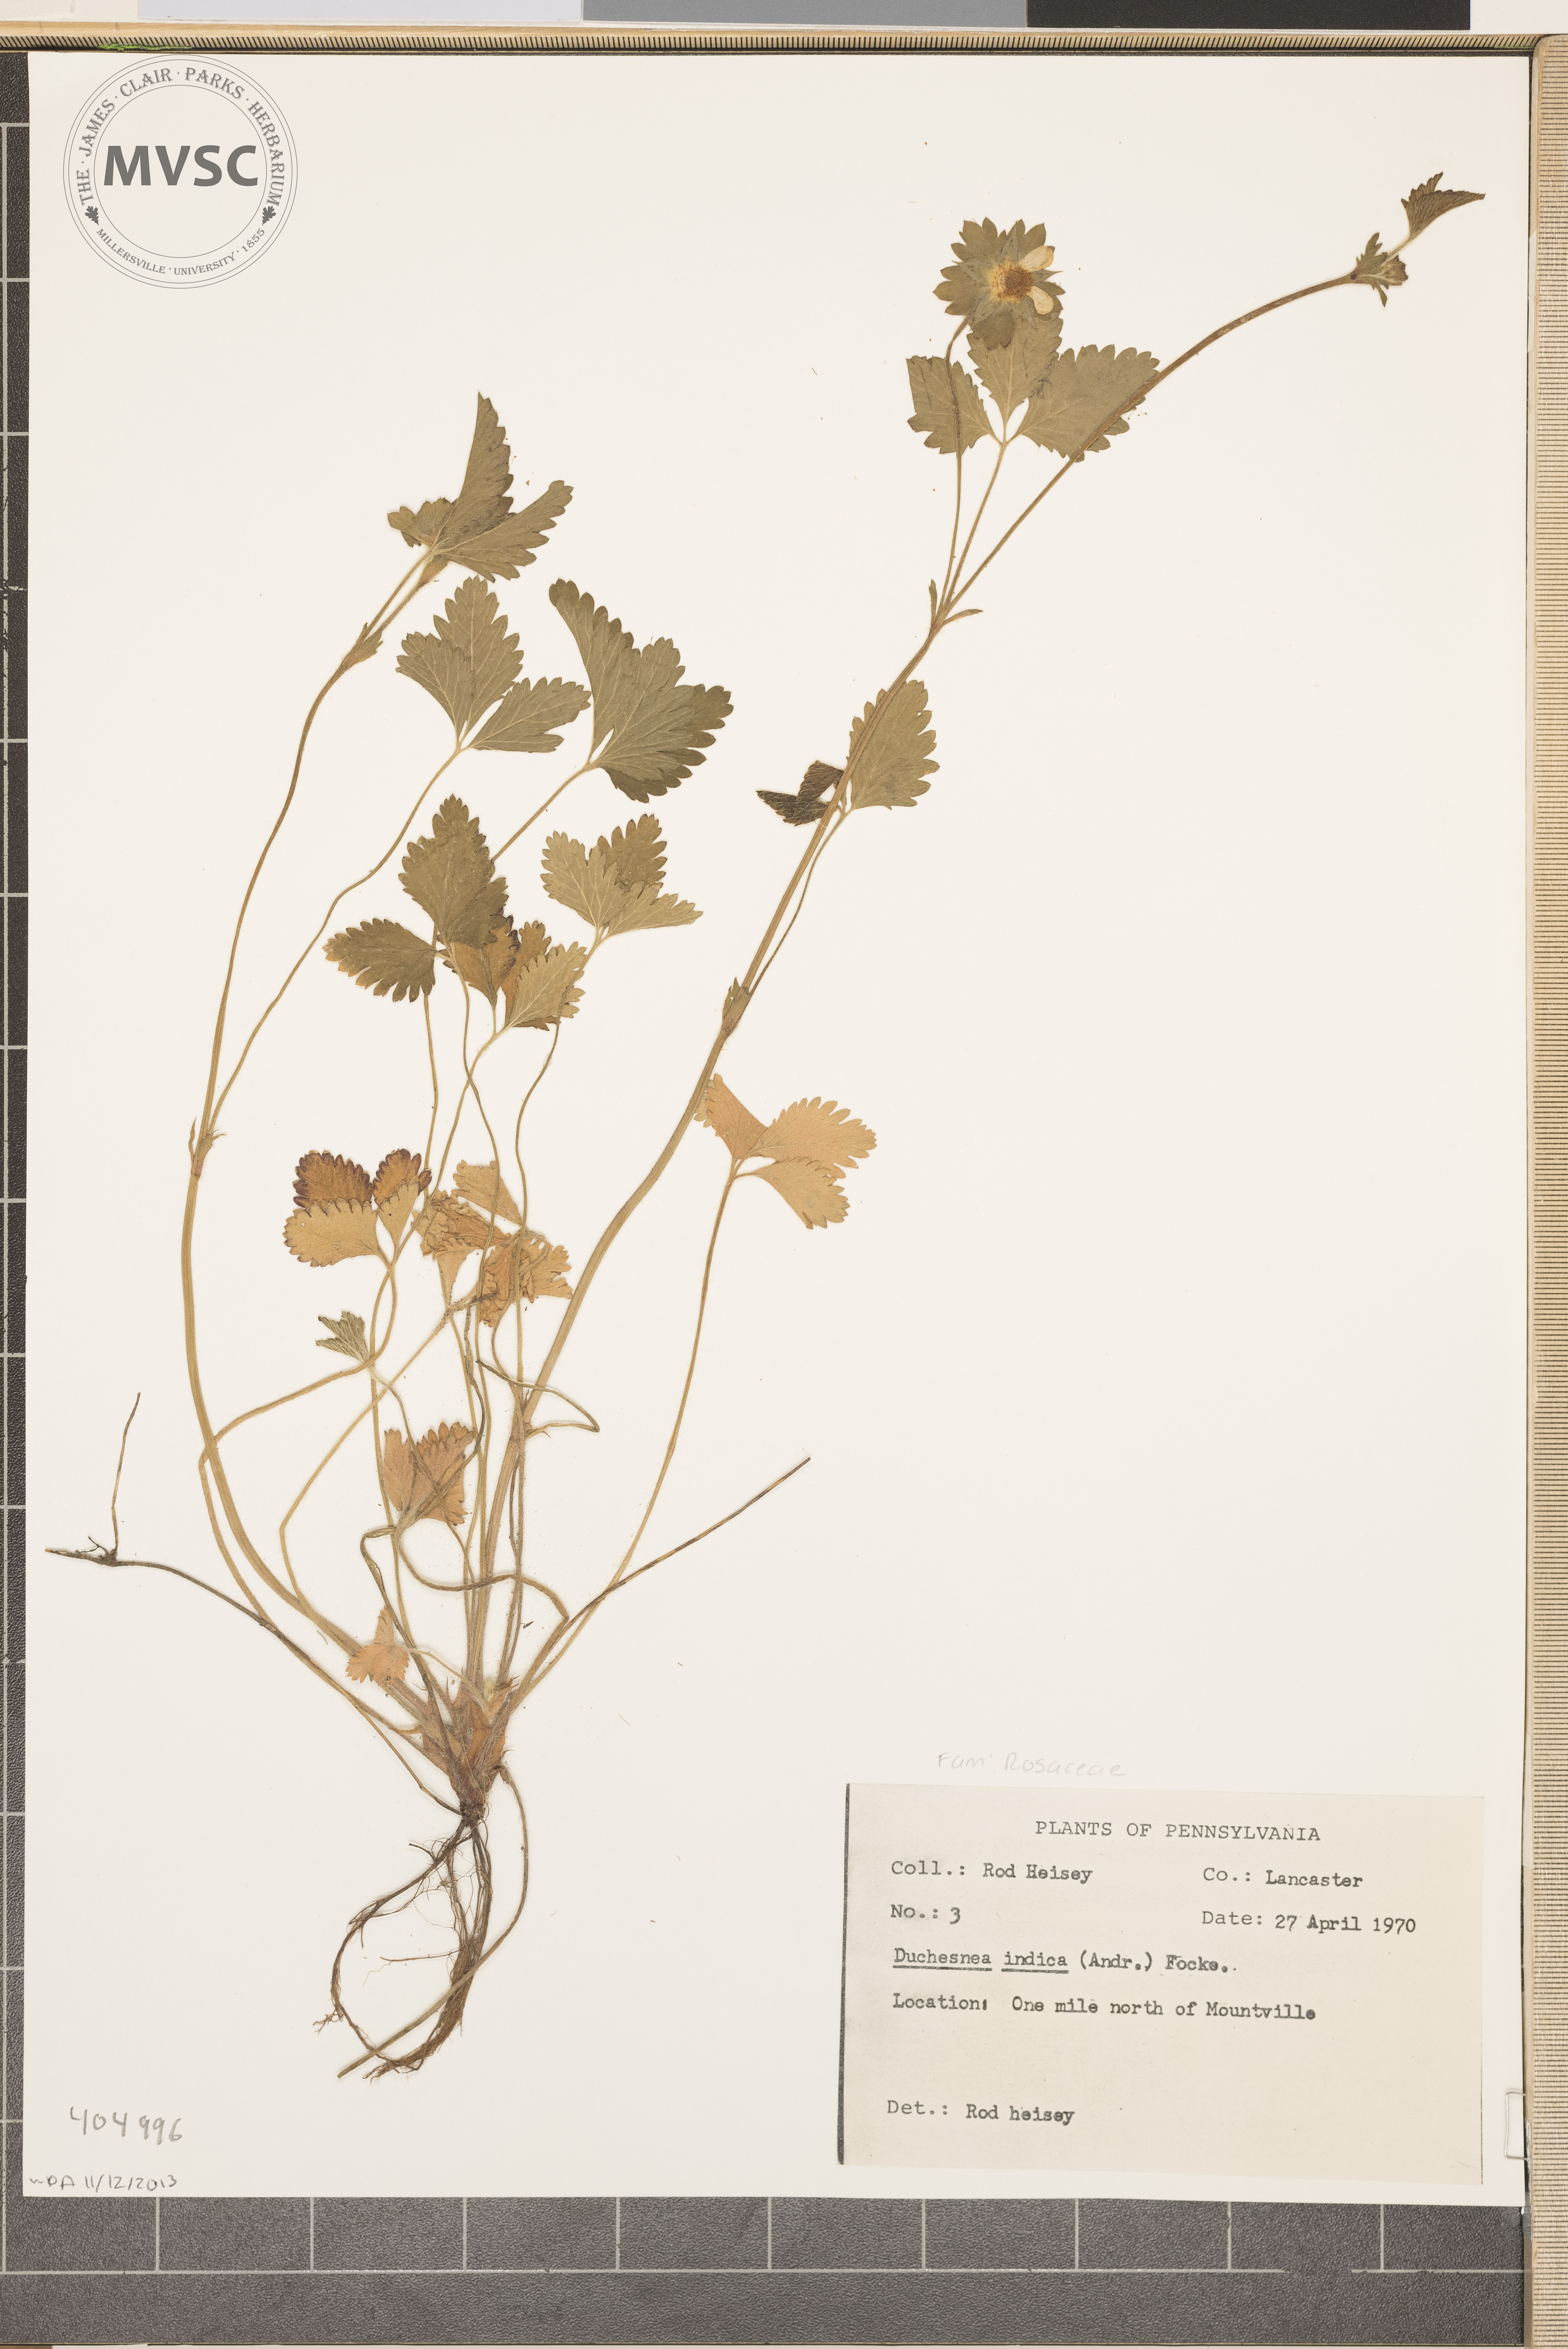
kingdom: Plantae
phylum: Tracheophyta
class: Magnoliopsida
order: Rosales
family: Rosaceae
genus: Potentilla
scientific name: Potentilla indica
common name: Yellow-flowered strawberry
